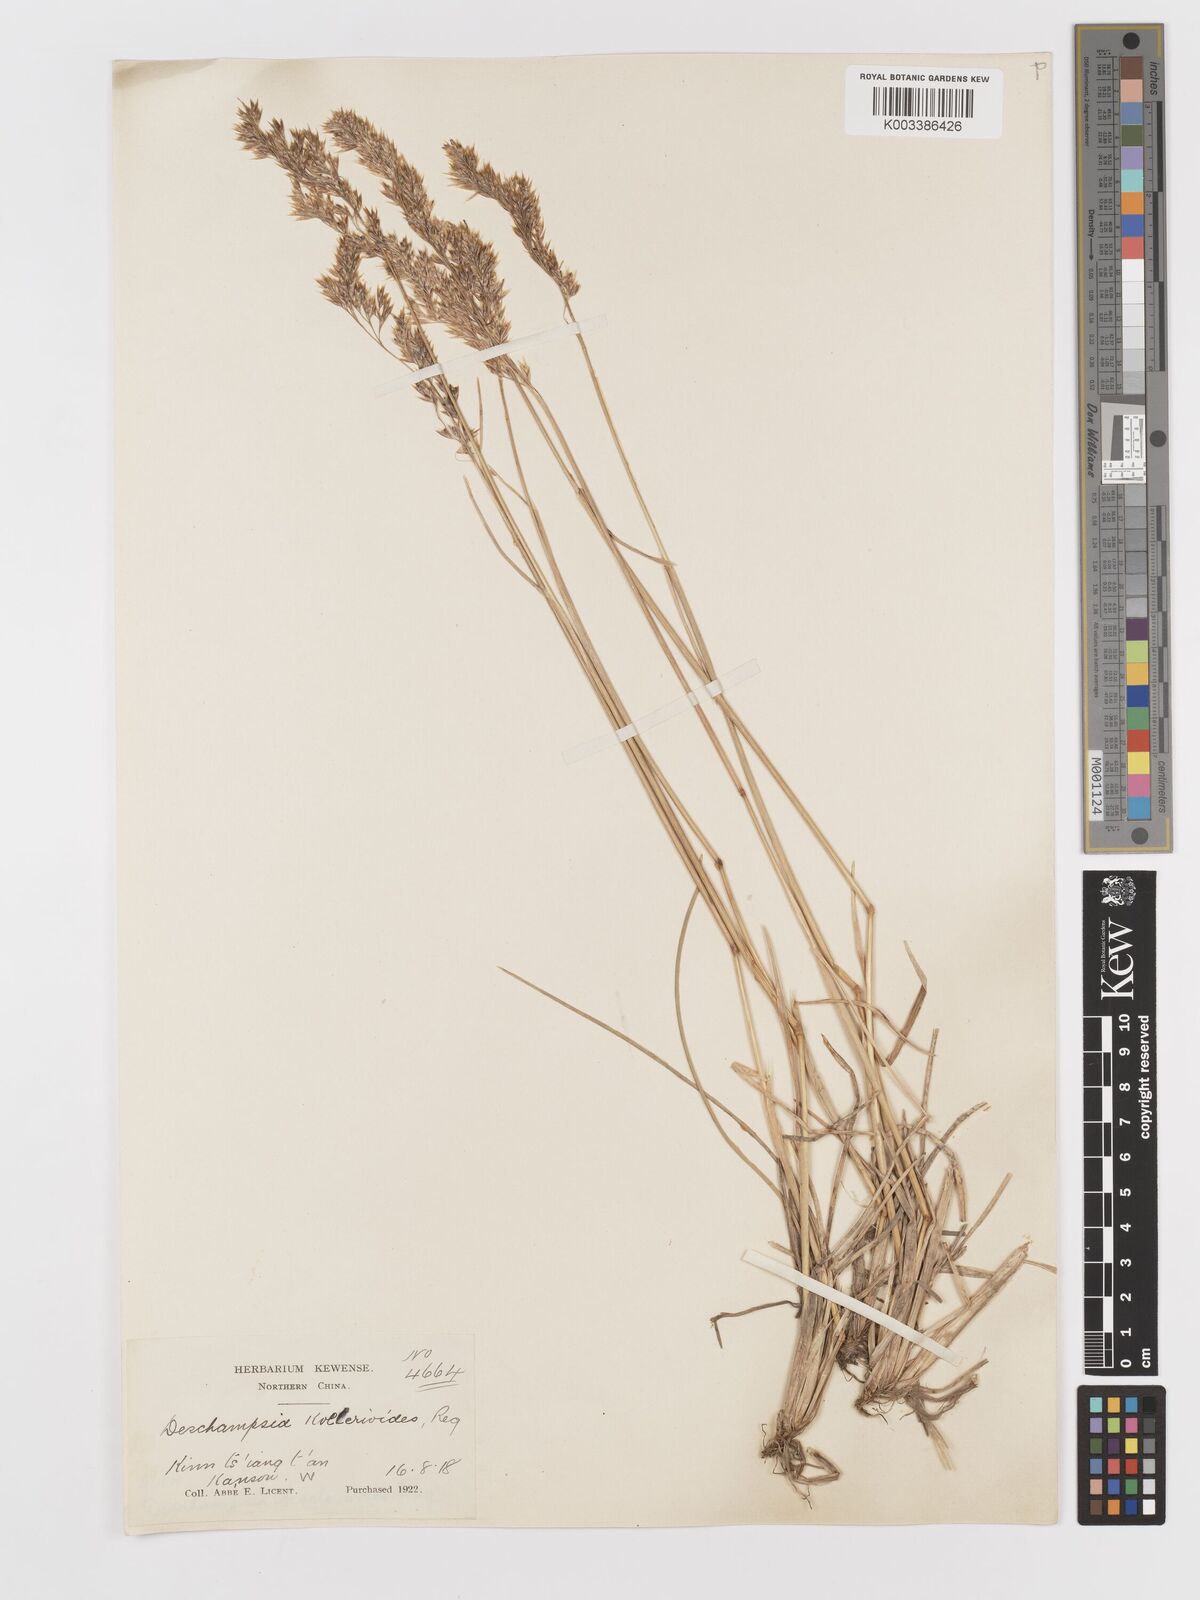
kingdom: Plantae
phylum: Tracheophyta
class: Liliopsida
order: Poales
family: Poaceae
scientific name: Poaceae
